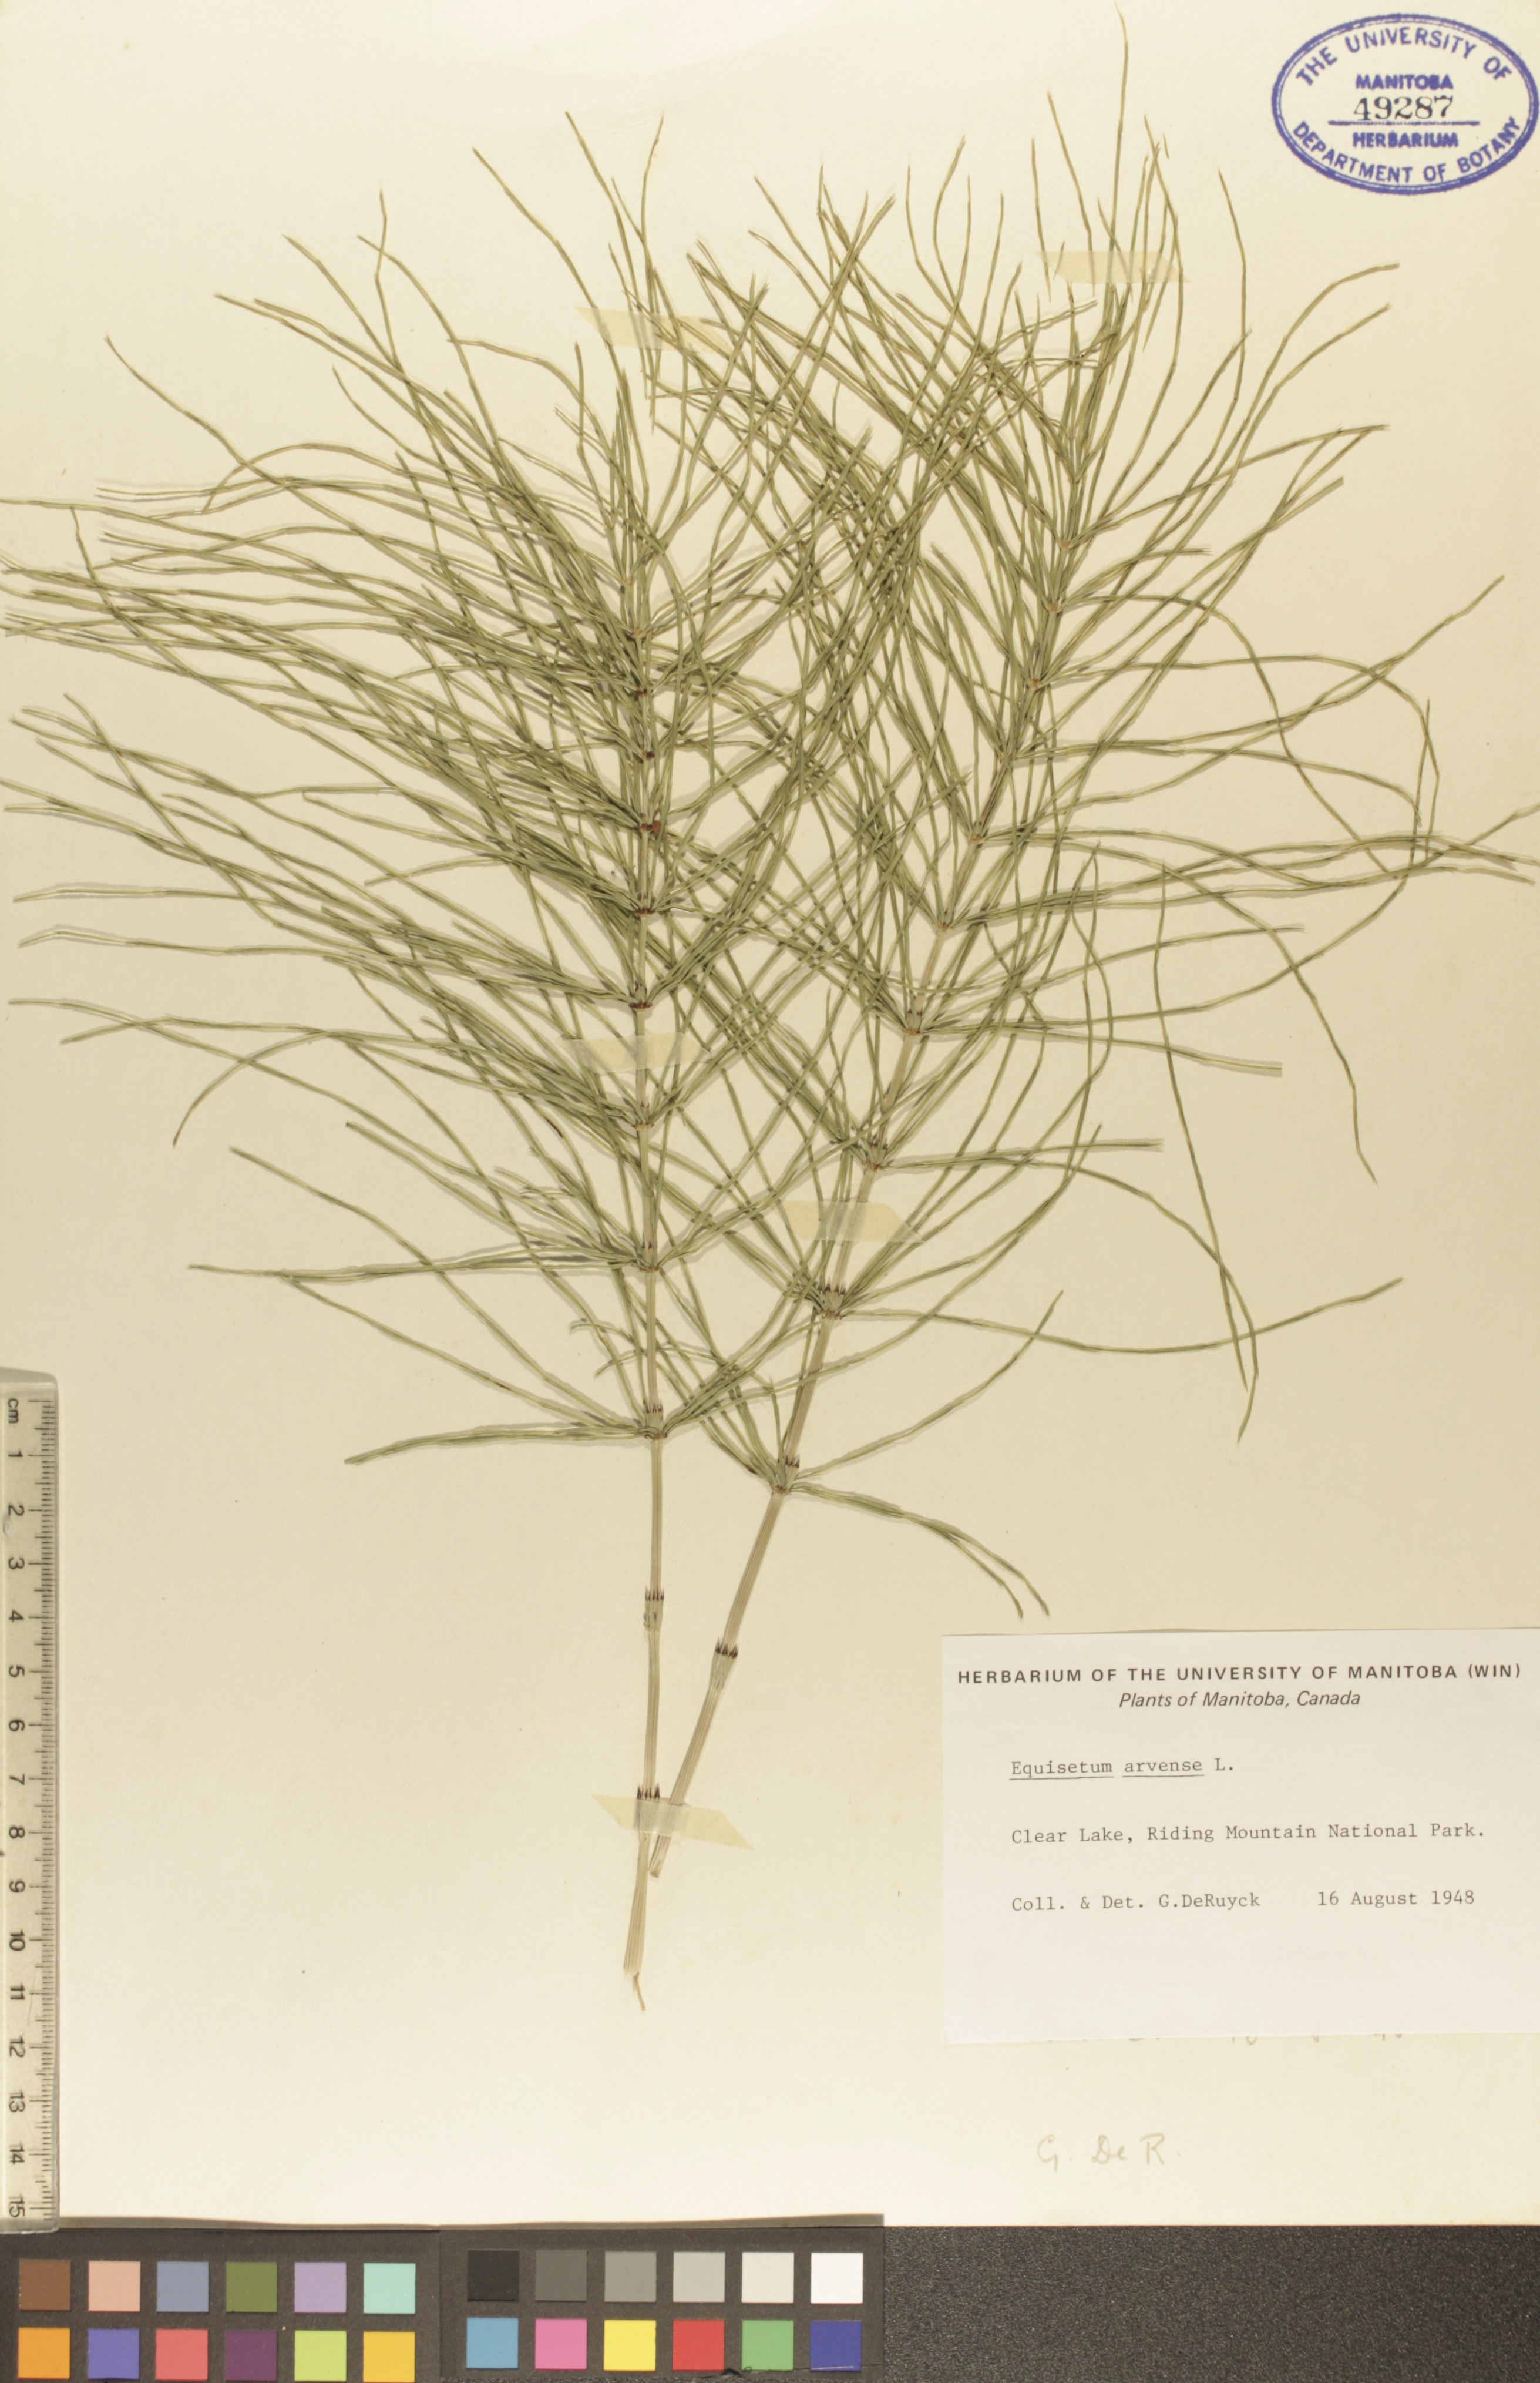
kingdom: Plantae
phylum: Tracheophyta
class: Polypodiopsida
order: Equisetales
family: Equisetaceae
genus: Equisetum
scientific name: Equisetum arvense
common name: Field horsetail
